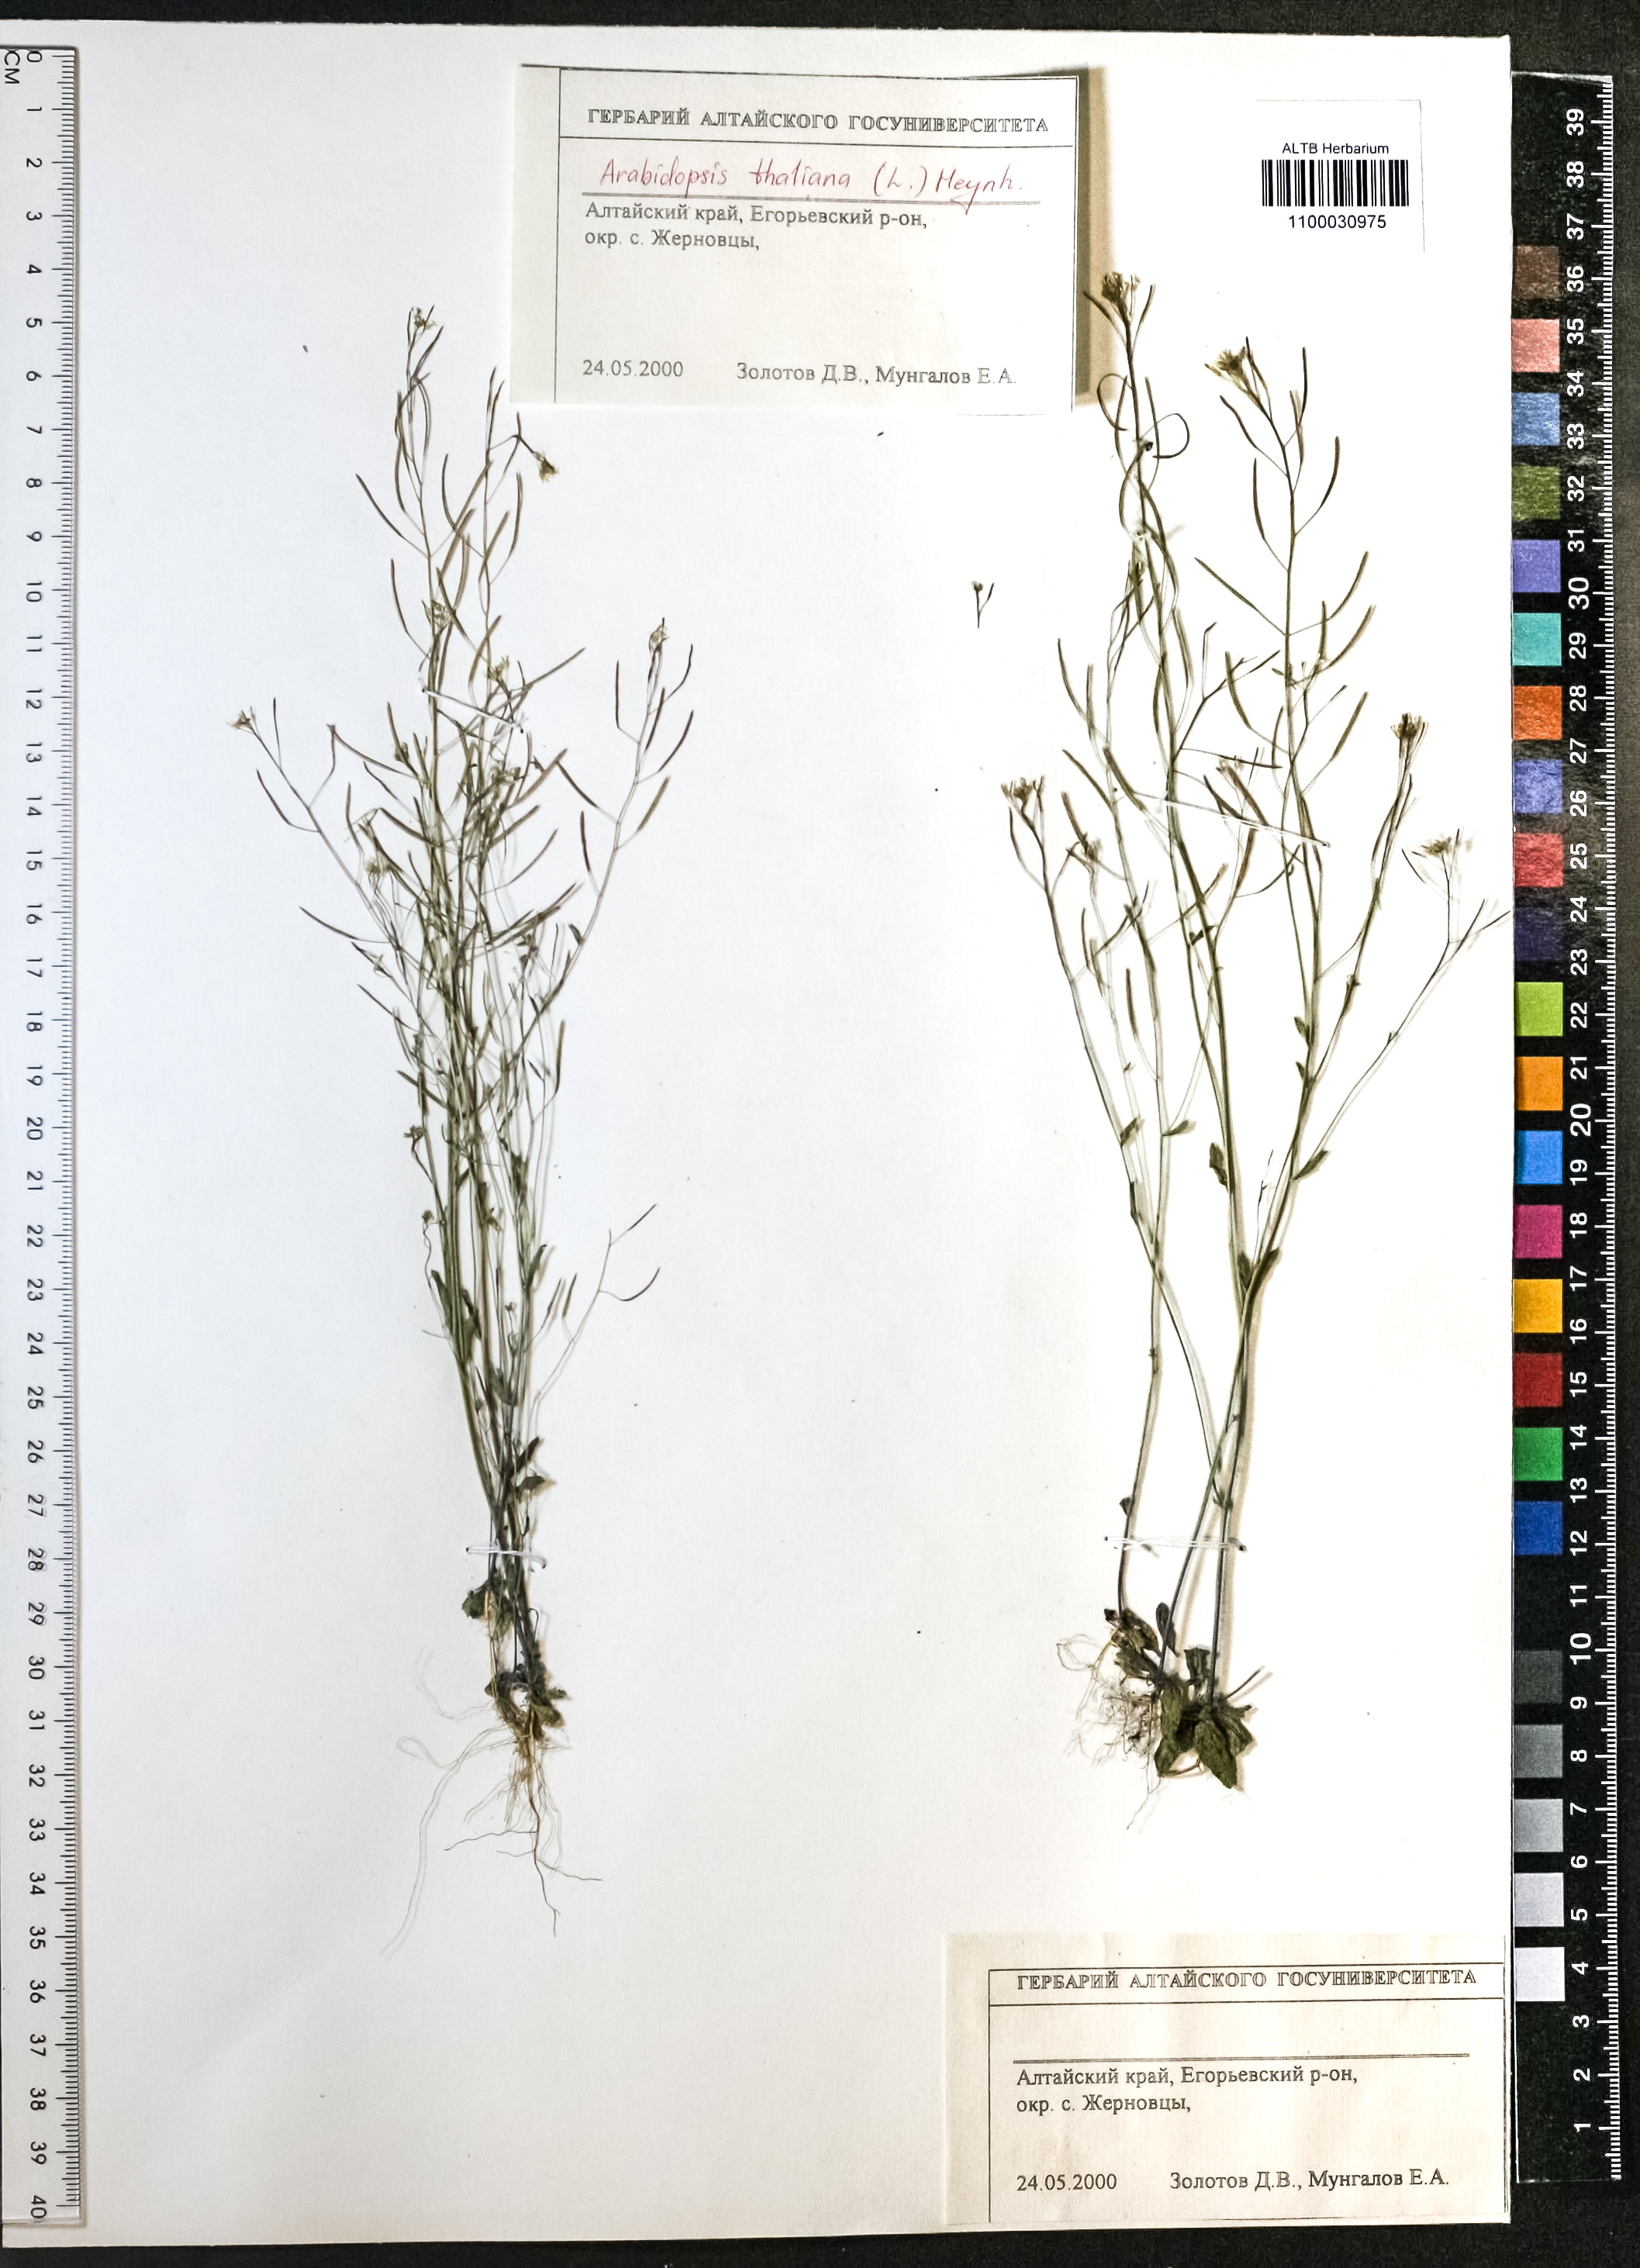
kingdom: Plantae
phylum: Tracheophyta
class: Magnoliopsida
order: Brassicales
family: Brassicaceae
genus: Arabidopsis
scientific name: Arabidopsis thaliana
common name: Thale cress
